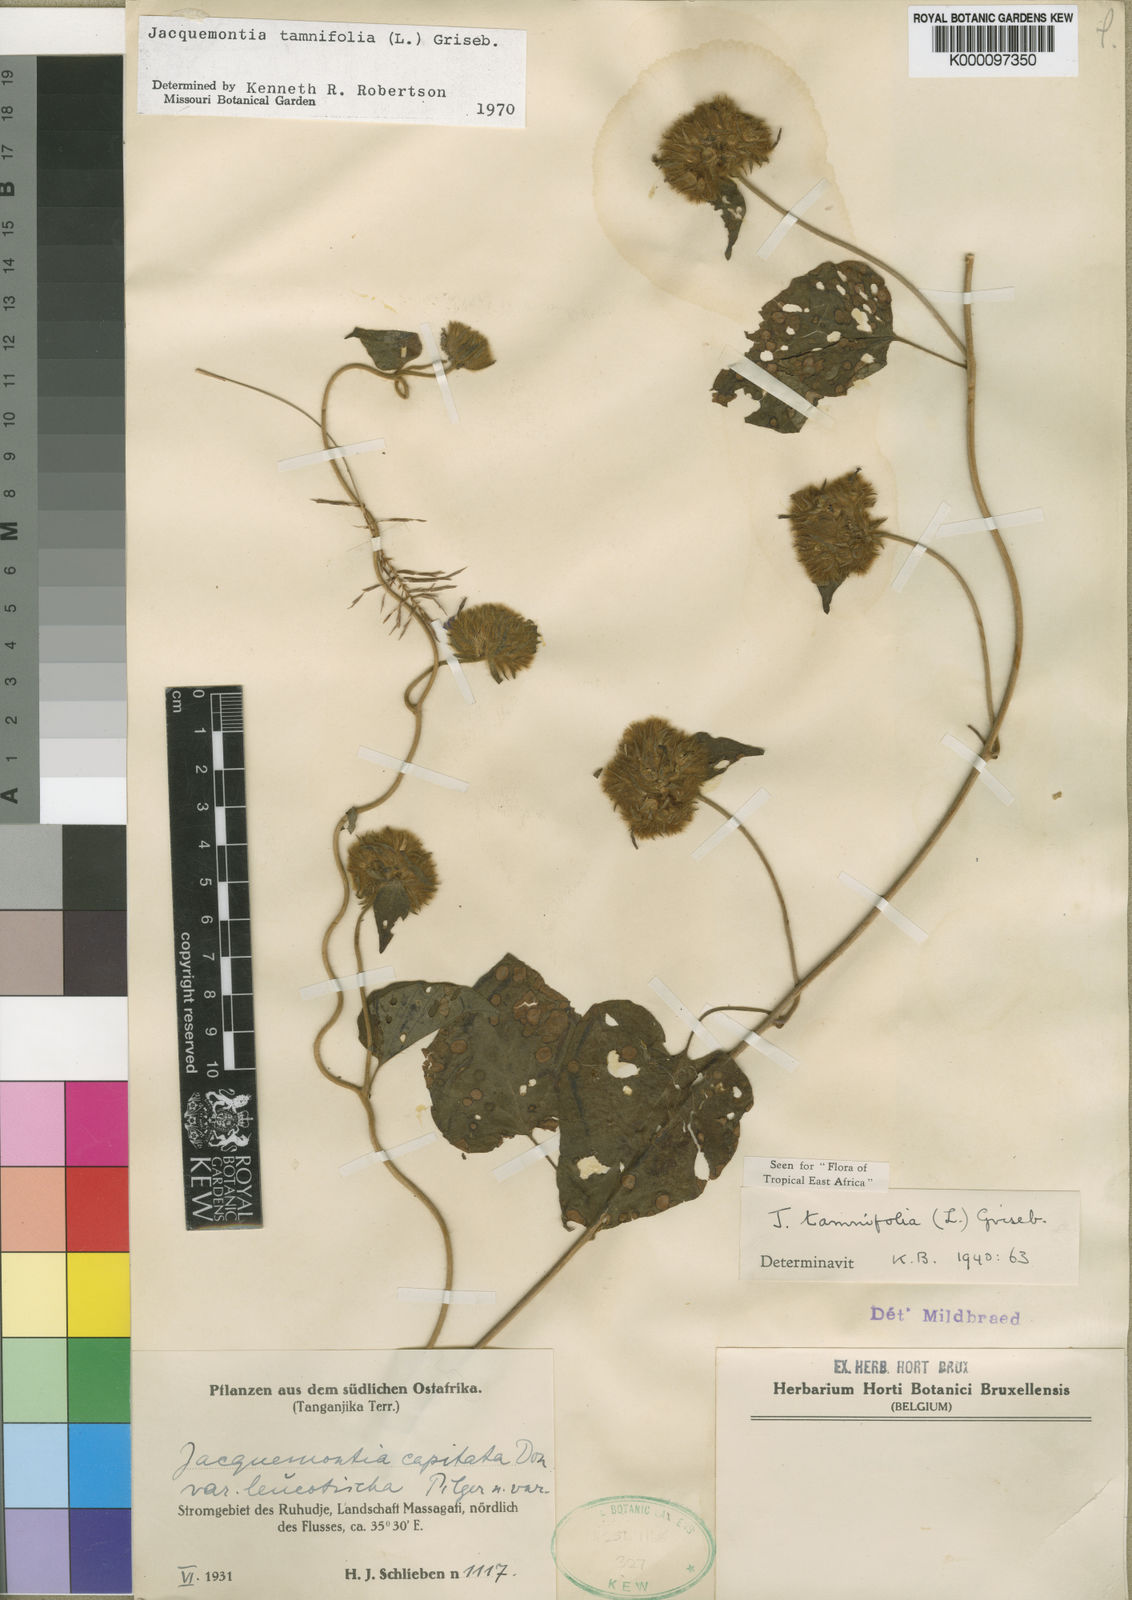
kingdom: Plantae
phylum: Tracheophyta
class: Magnoliopsida
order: Solanales
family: Convolvulaceae
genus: Jacquemontia
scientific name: Jacquemontia tamnifolia
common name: Hairy clustervine
